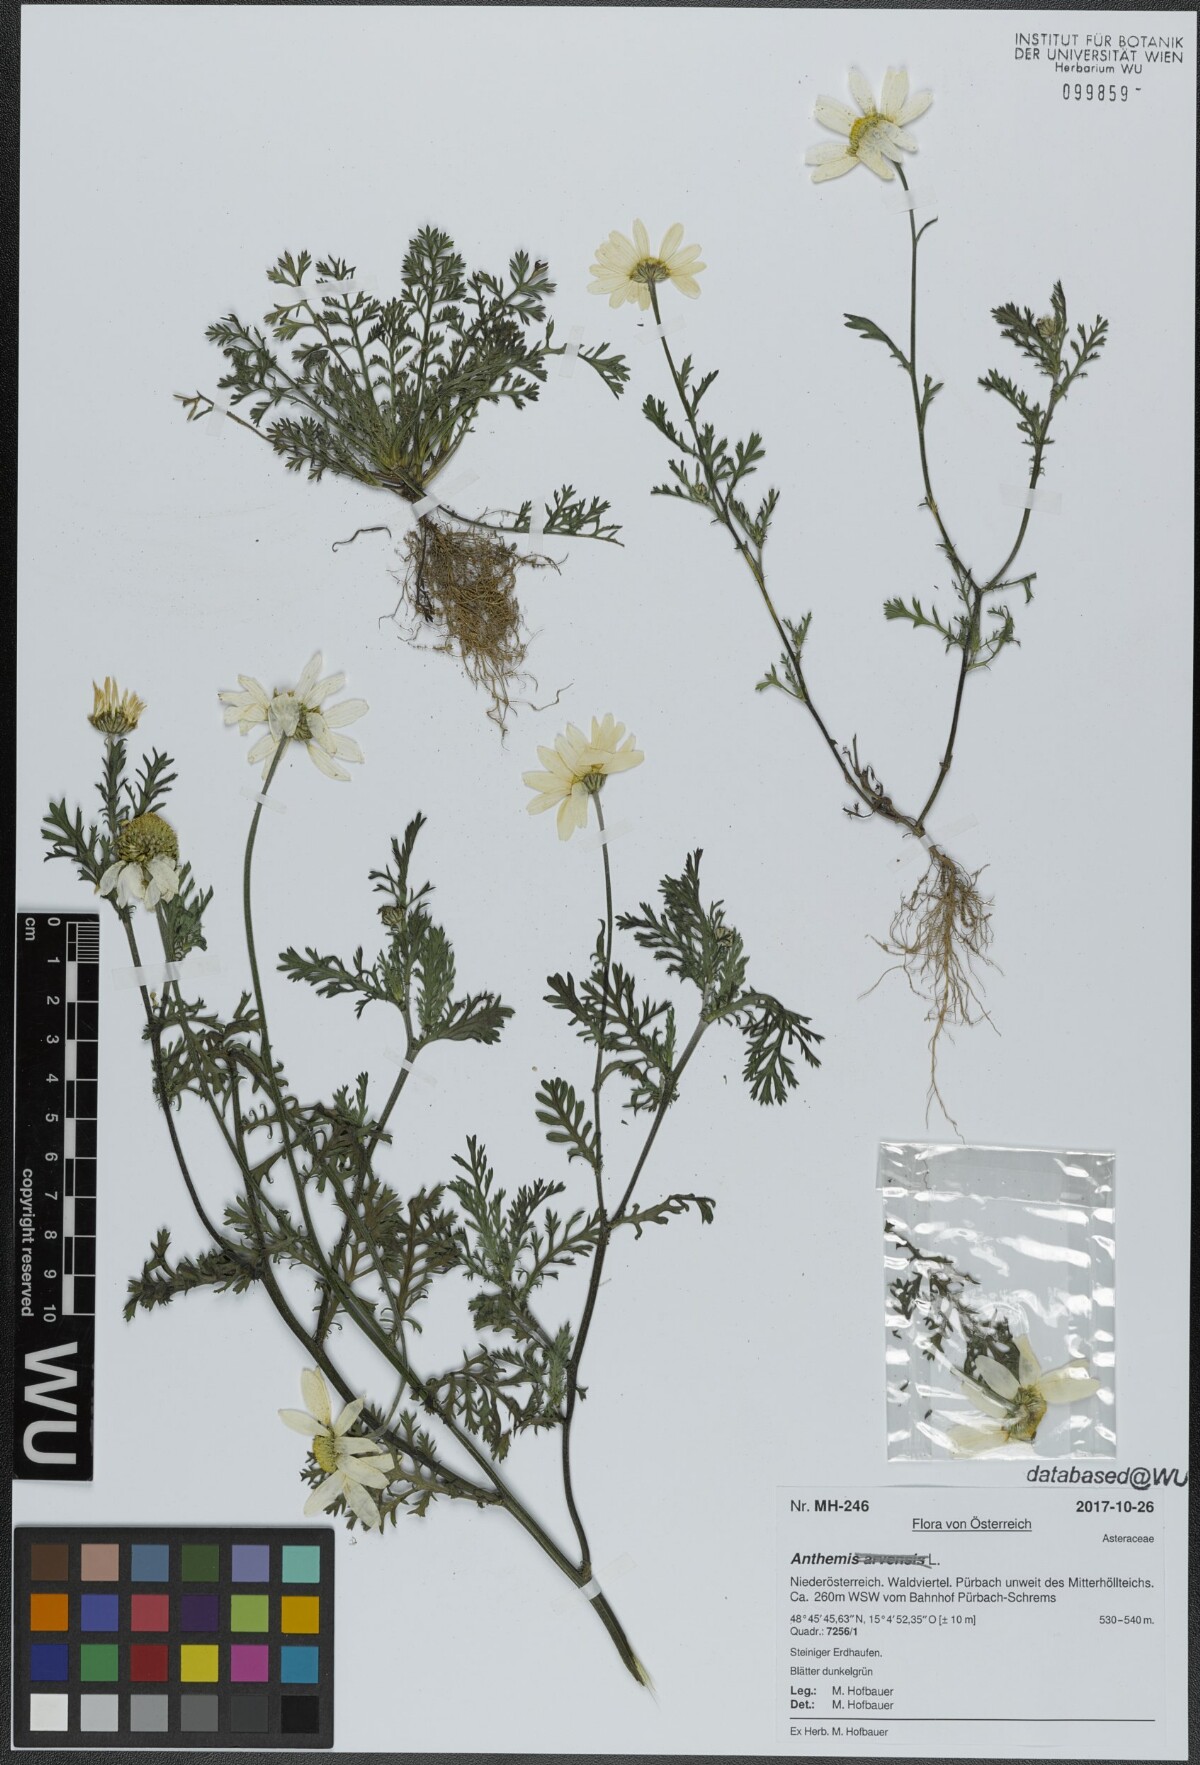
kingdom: Plantae
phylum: Tracheophyta
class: Magnoliopsida
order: Asterales
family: Asteraceae
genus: Anthemis
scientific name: Anthemis
